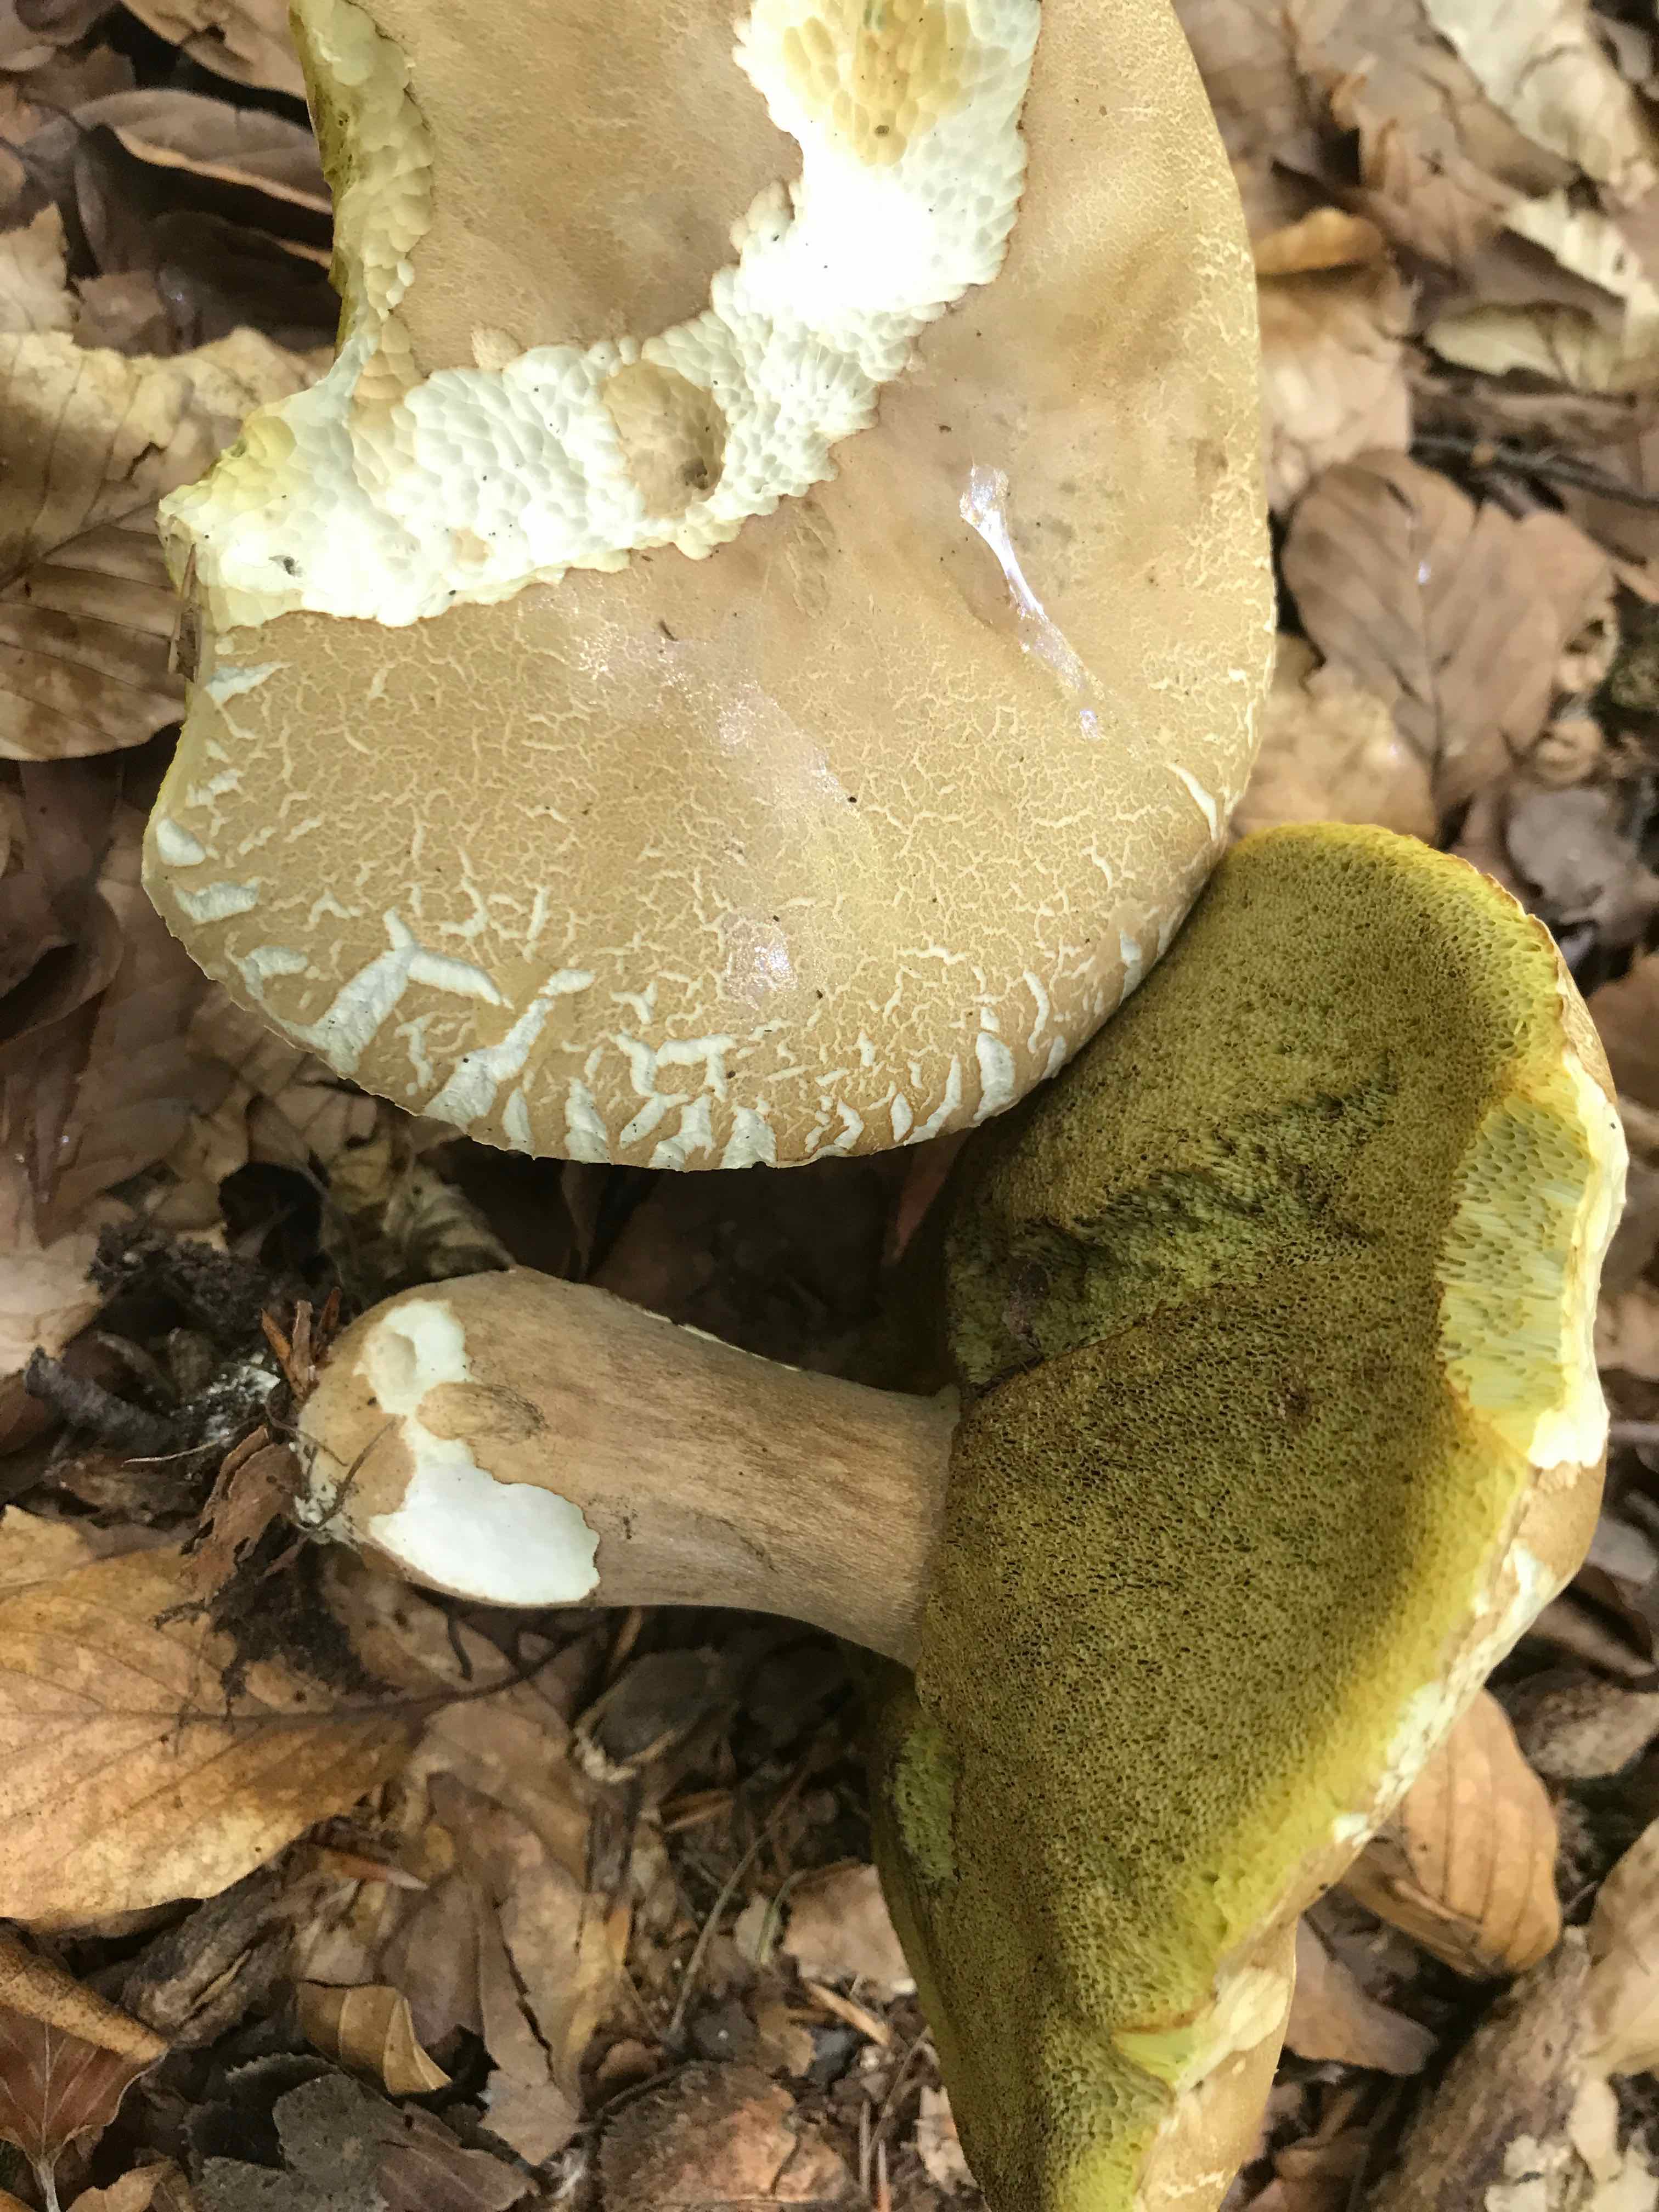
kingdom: Fungi
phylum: Basidiomycota
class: Agaricomycetes
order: Boletales
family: Boletaceae
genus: Boletus
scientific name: Boletus reticulatus
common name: sommer-rørhat
